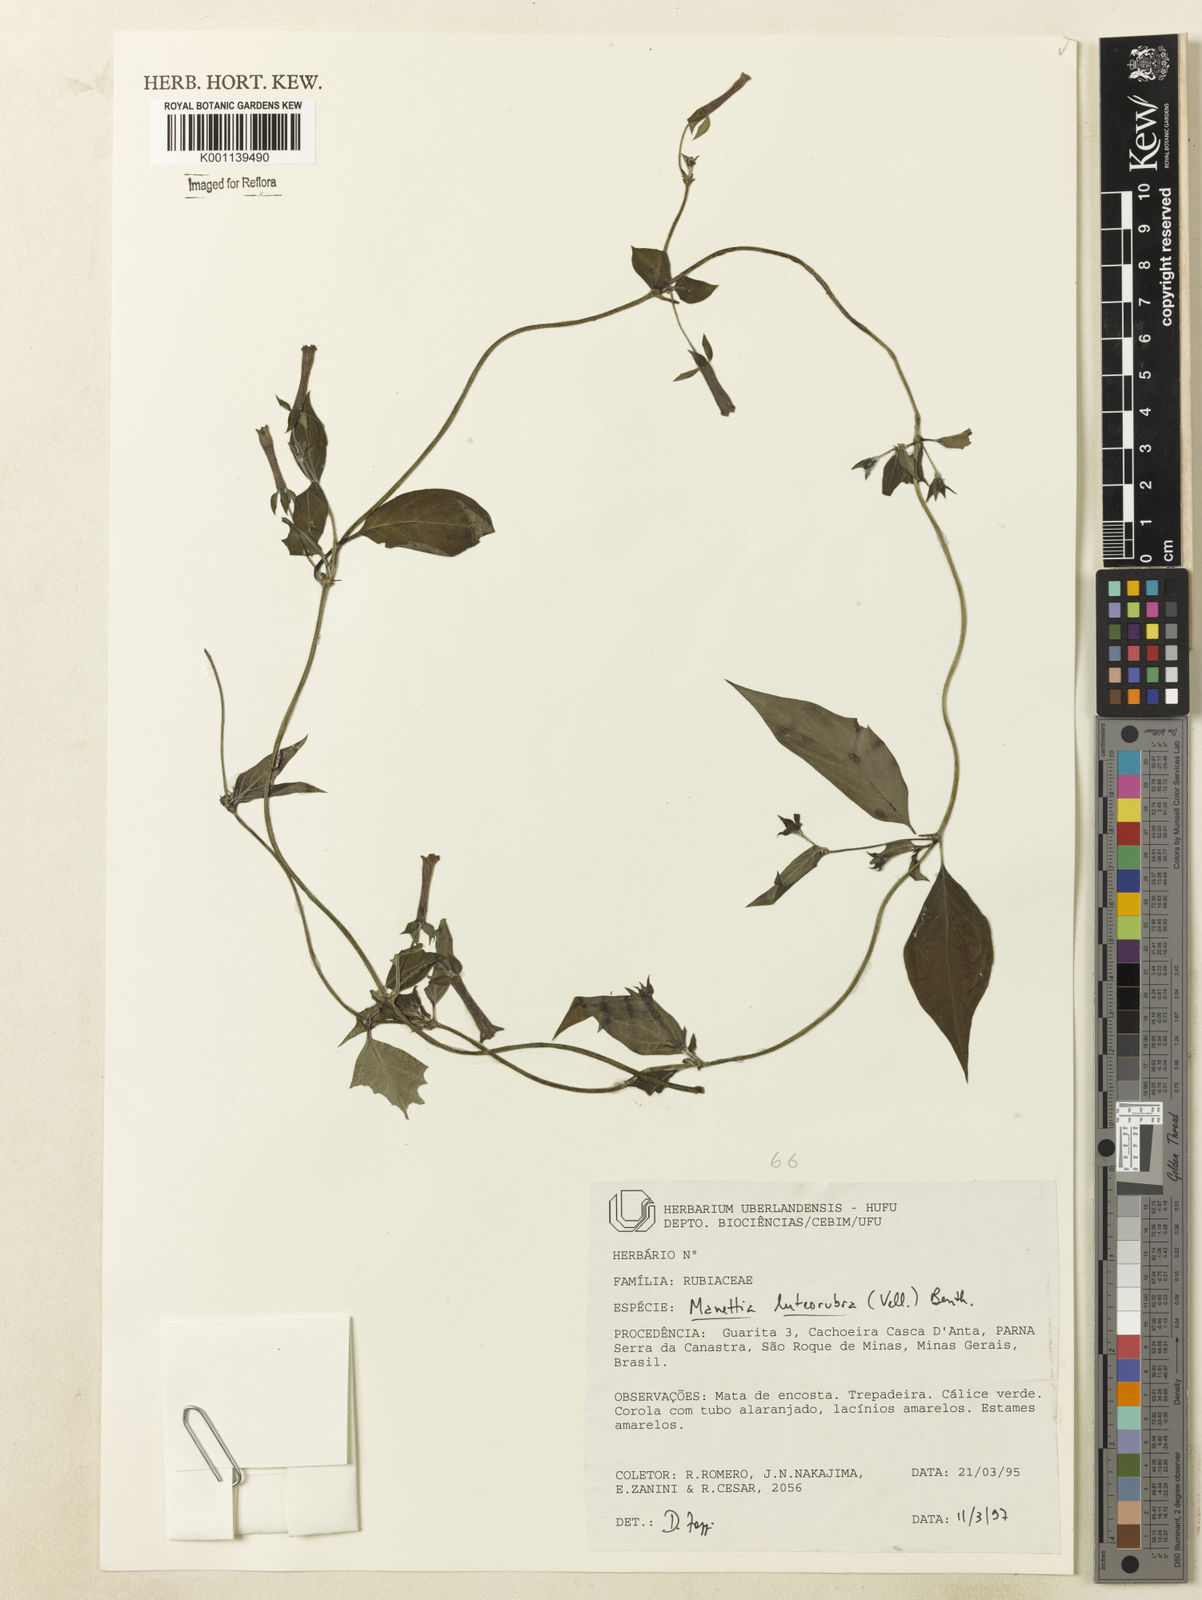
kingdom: Plantae
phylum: Tracheophyta
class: Magnoliopsida
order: Gentianales
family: Rubiaceae
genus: Manettia
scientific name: Manettia luteorubra
